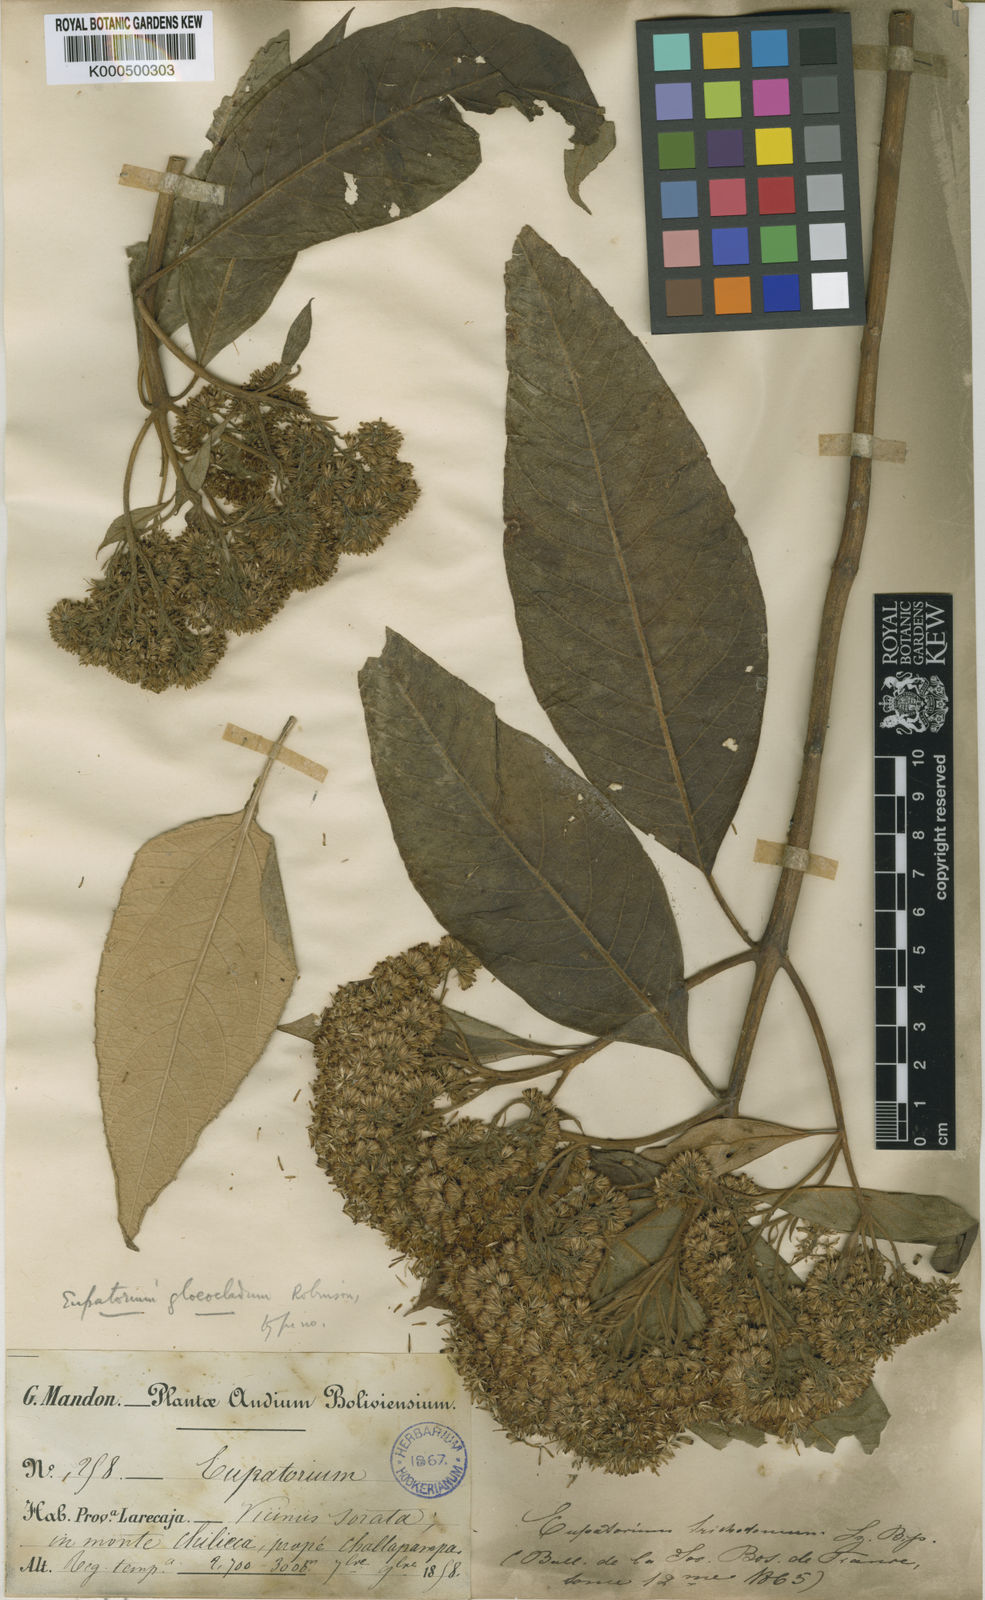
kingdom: Plantae
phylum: Tracheophyta
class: Magnoliopsida
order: Asterales
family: Asteraceae
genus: Ageratina
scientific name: Ageratina gloeoclada
